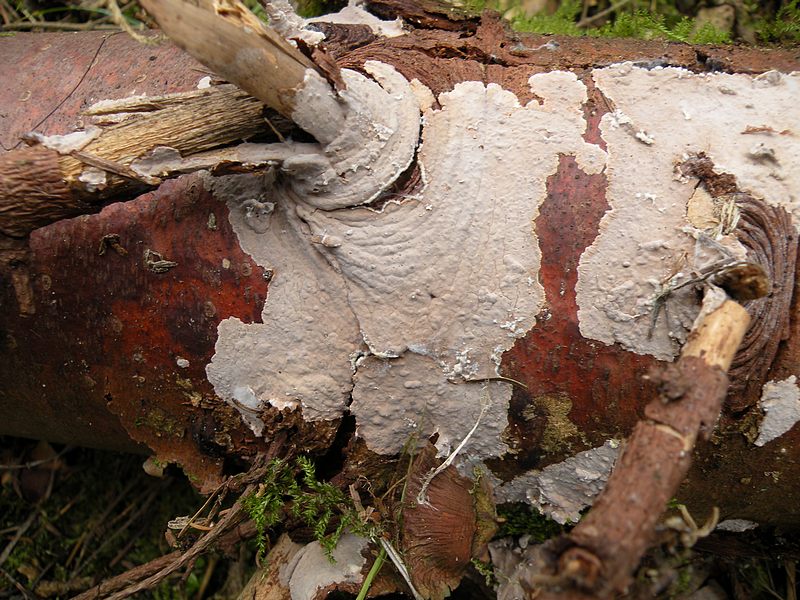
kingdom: Fungi
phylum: Basidiomycota
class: Agaricomycetes
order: Russulales
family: Echinodontiaceae
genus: Amylostereum
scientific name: Amylostereum chailletii
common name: gran-lædersvamp
